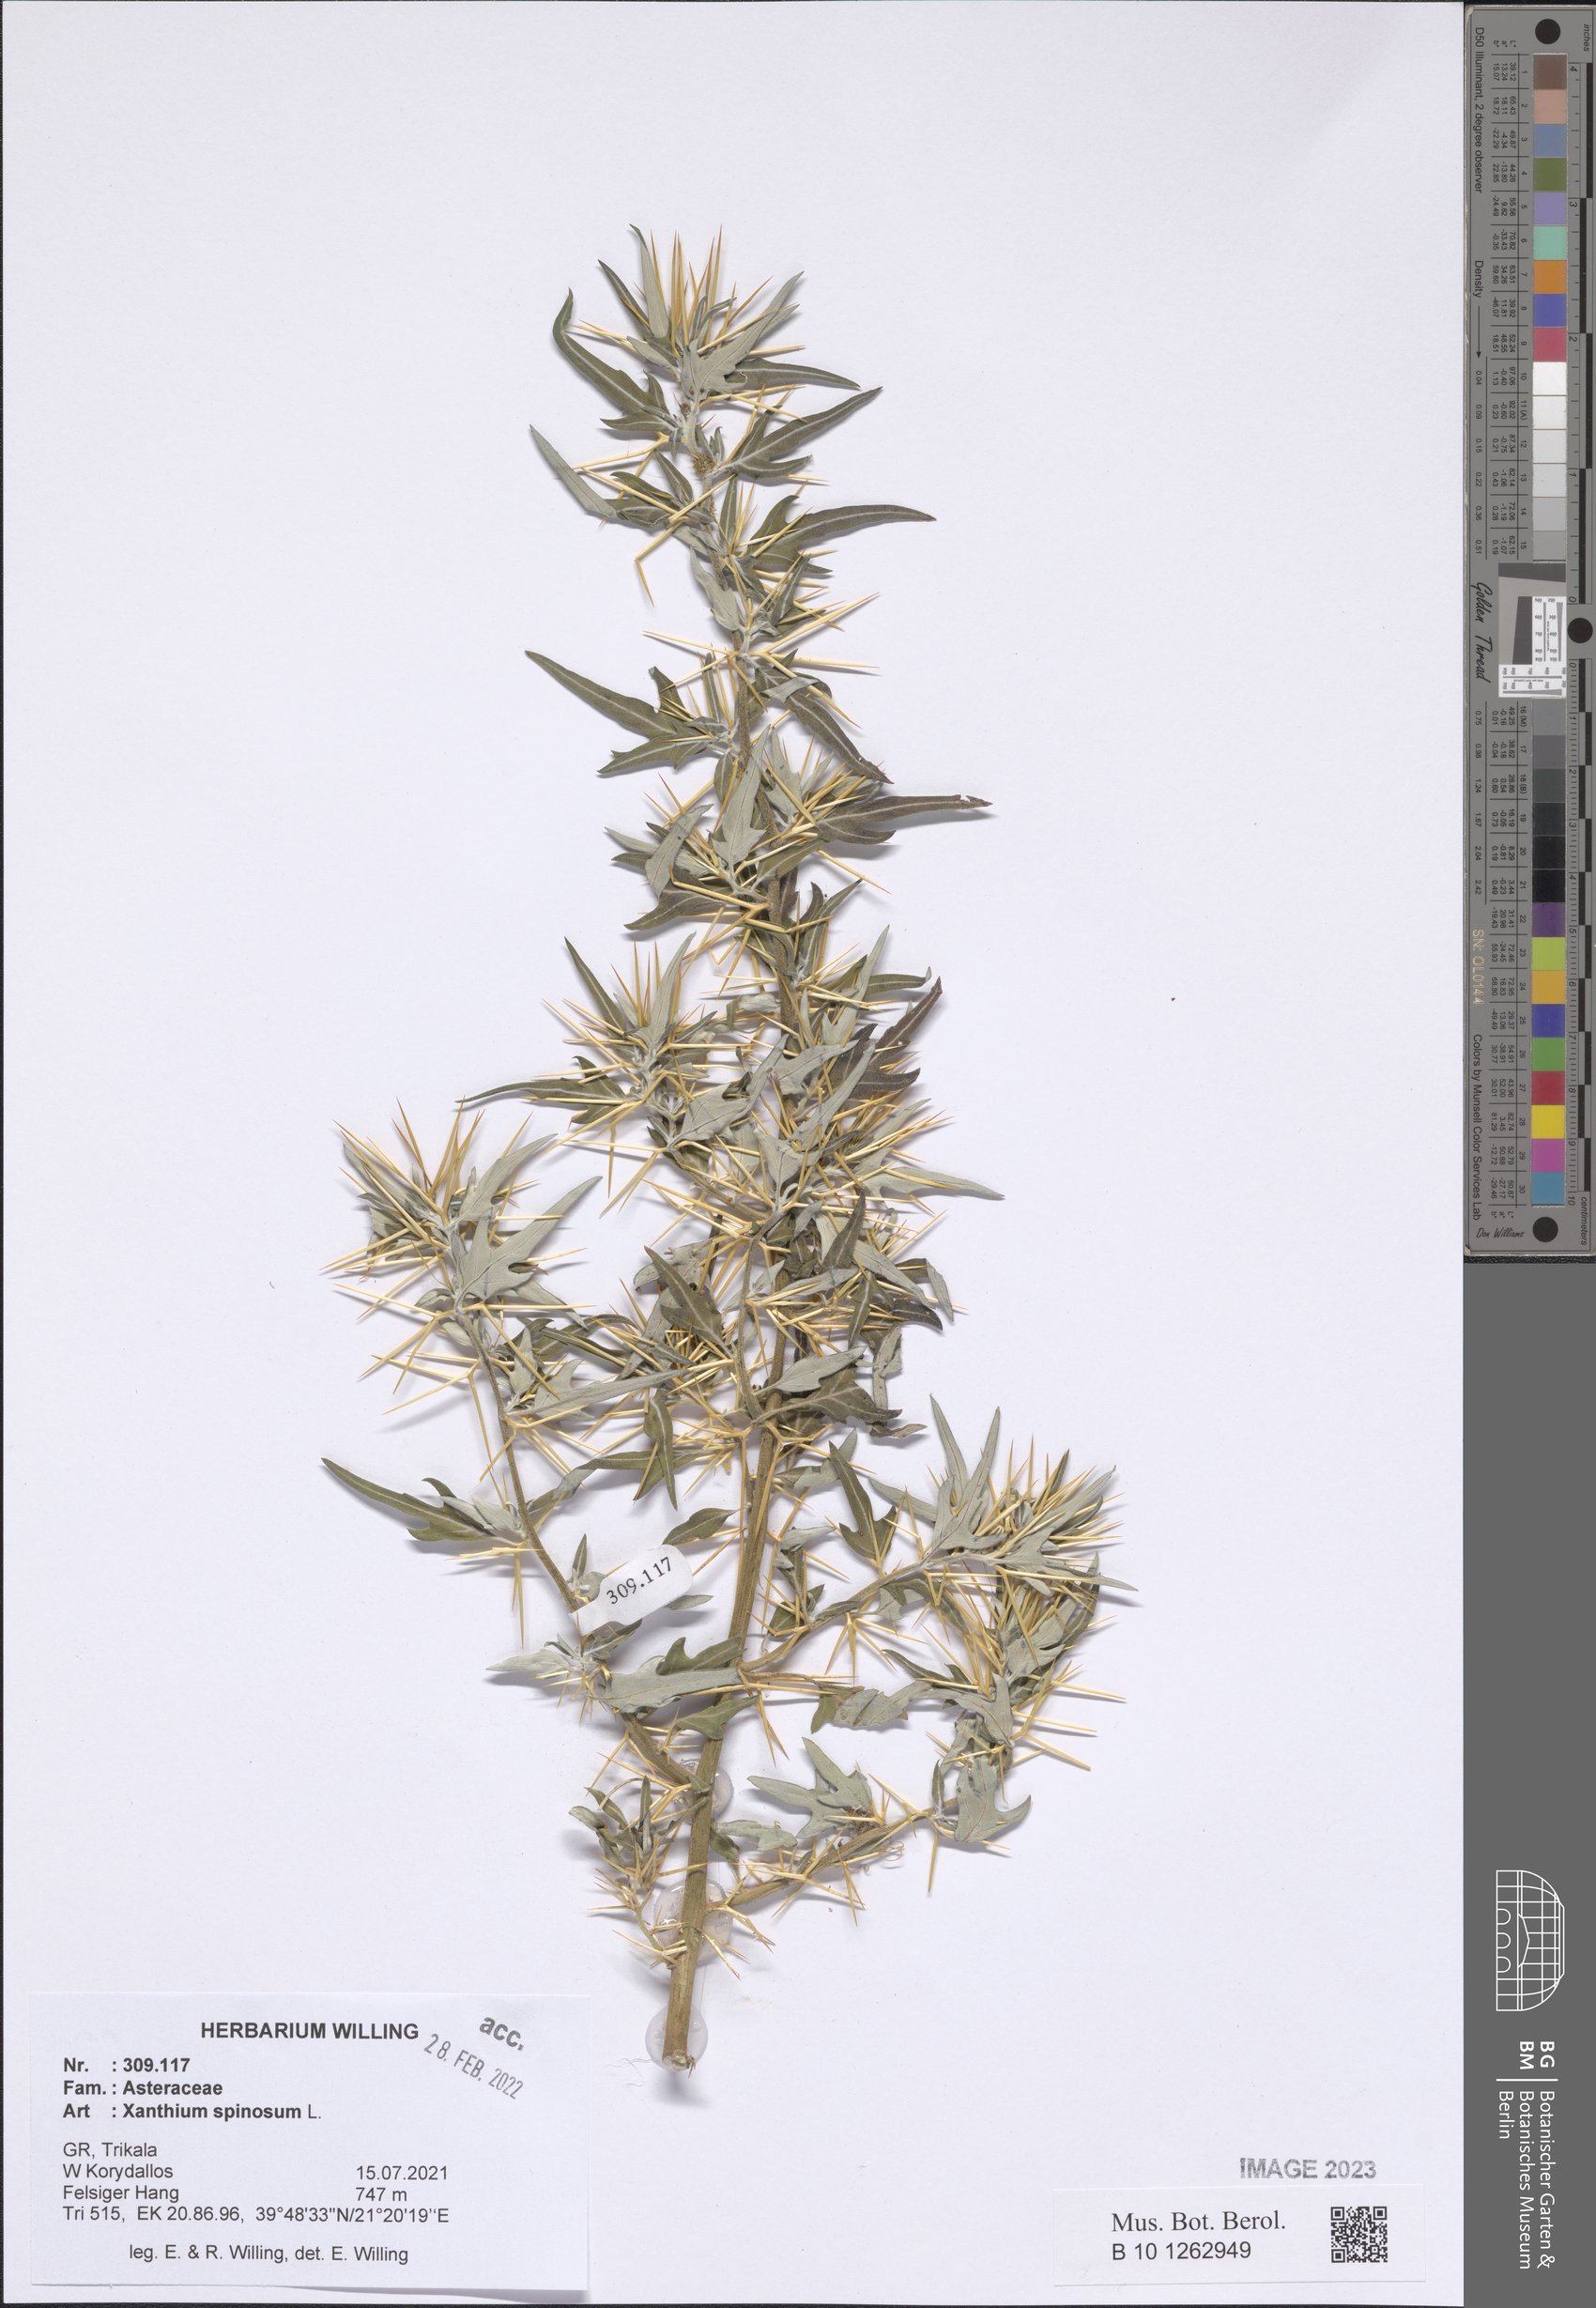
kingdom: Plantae
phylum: Tracheophyta
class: Magnoliopsida
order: Asterales
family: Asteraceae
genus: Xanthium
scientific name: Xanthium spinosum
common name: Spiny cocklebur
